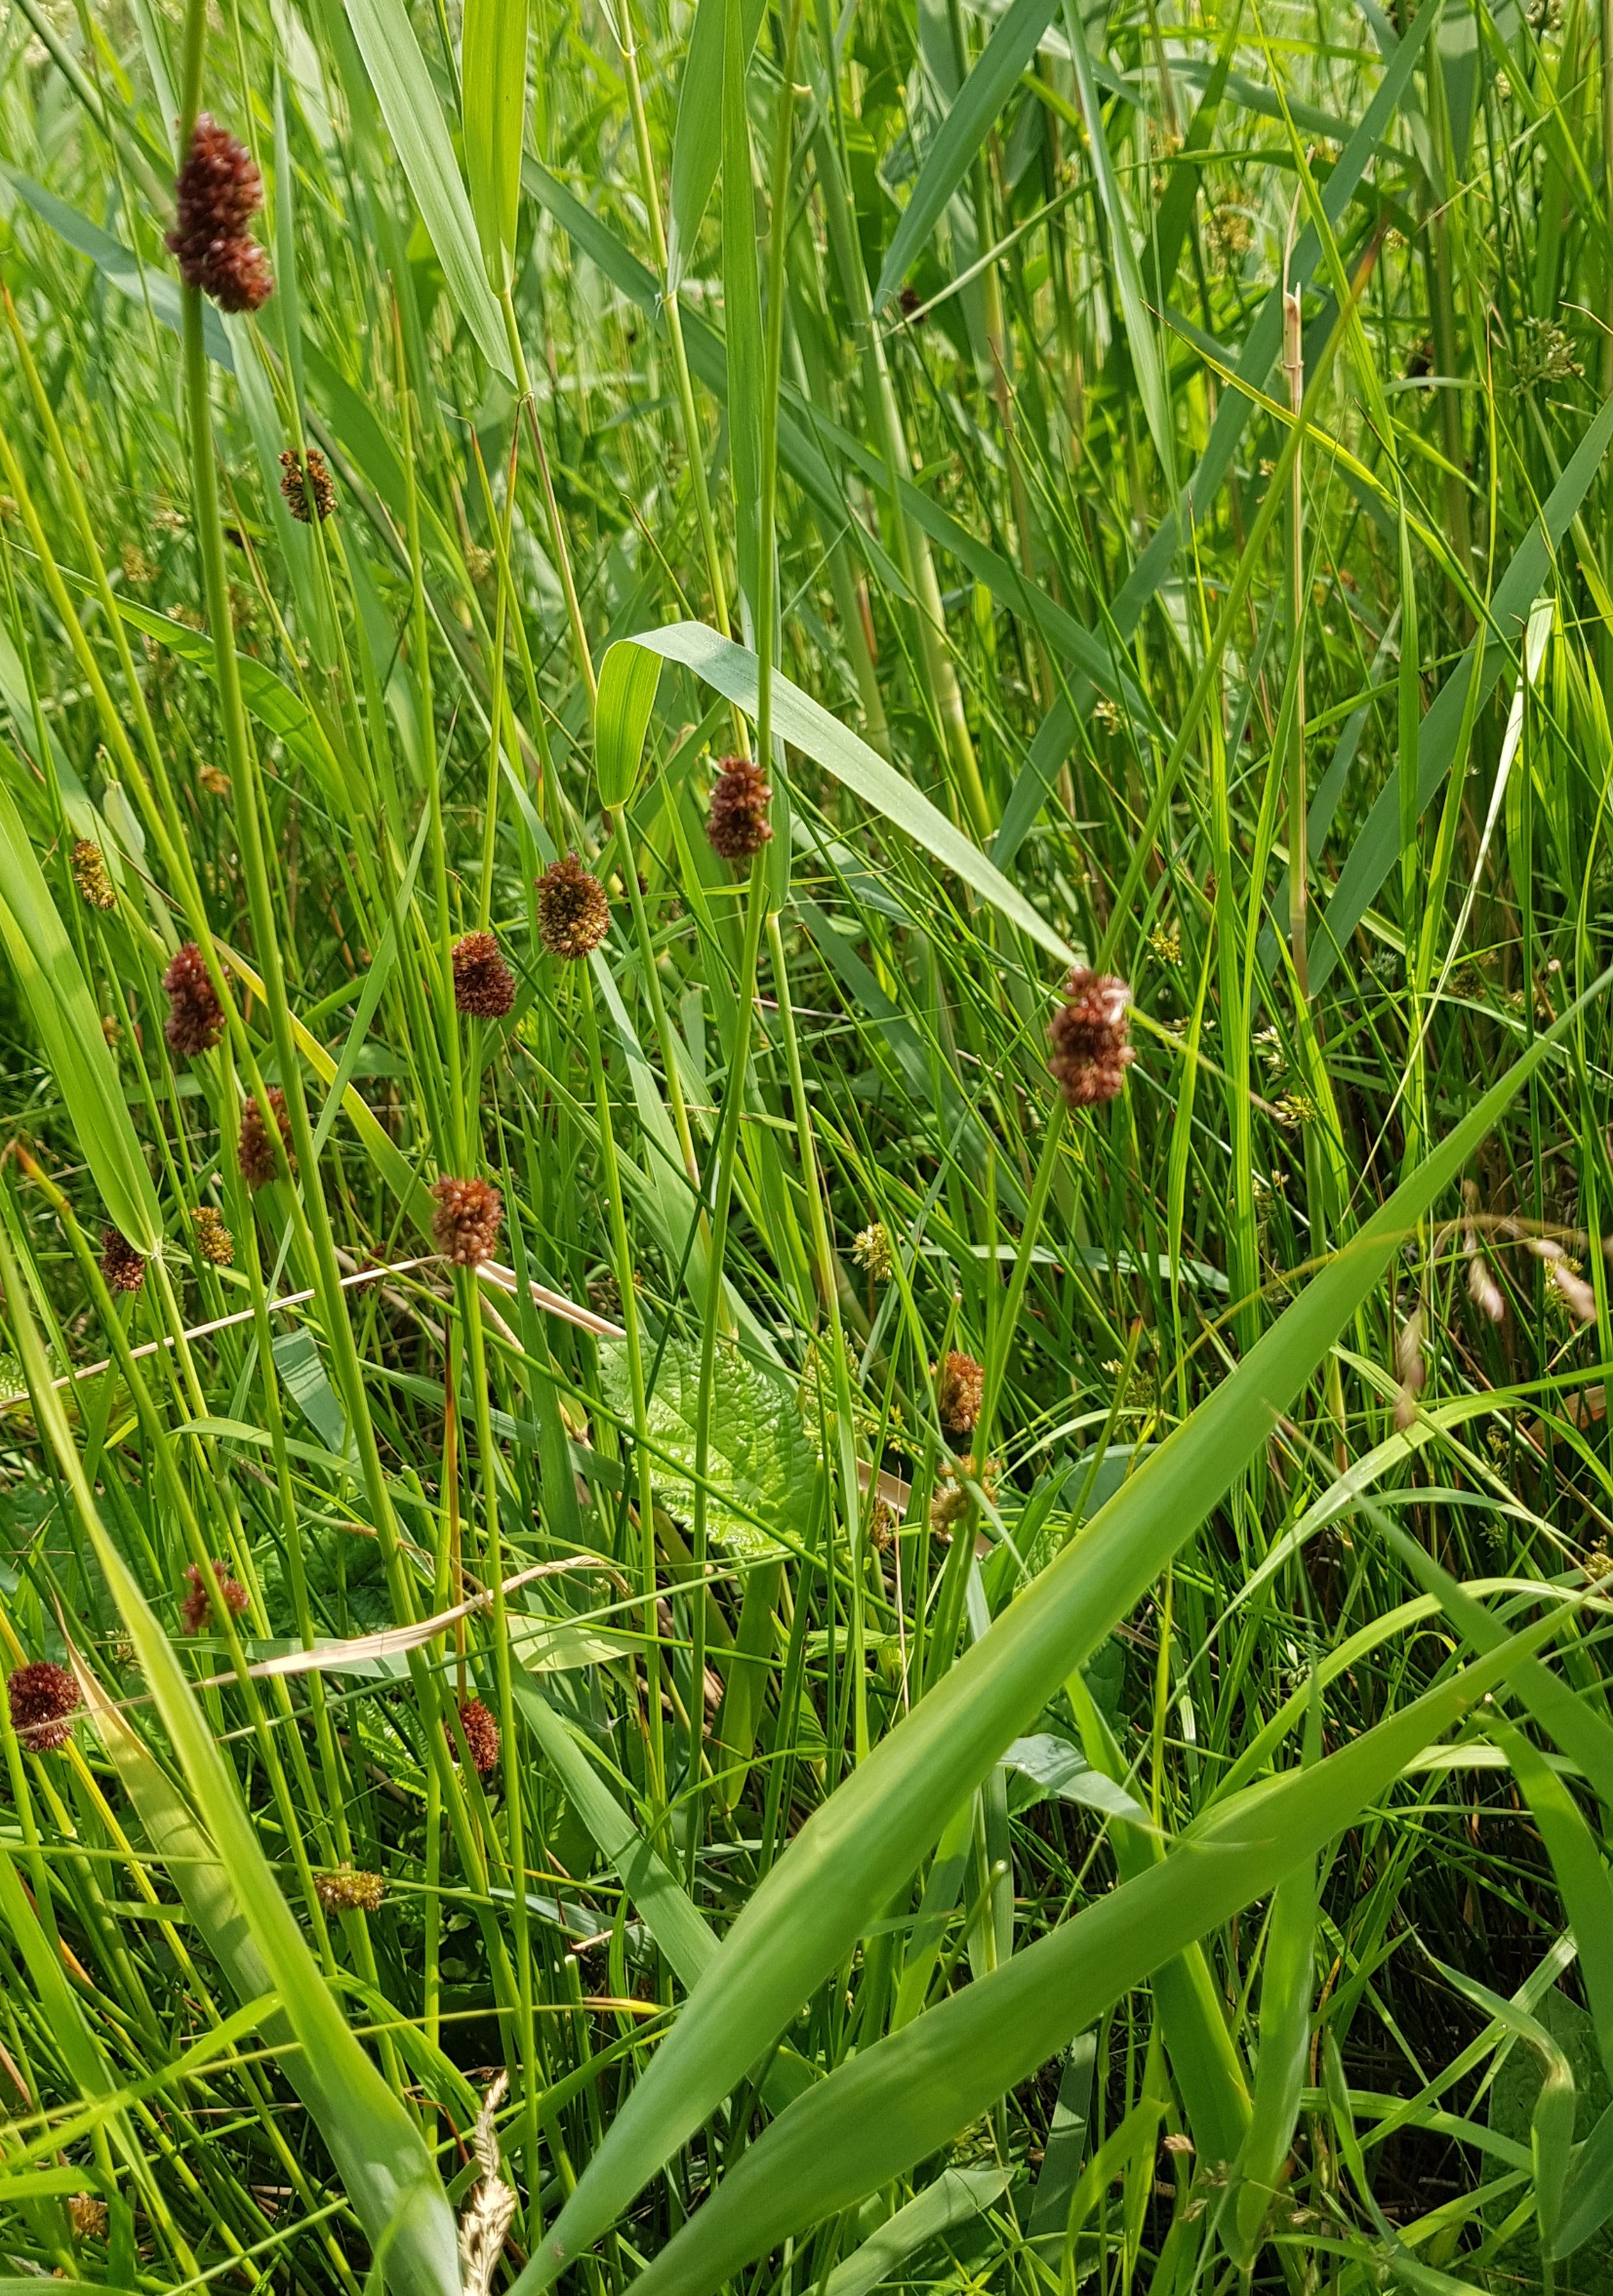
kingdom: Plantae
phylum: Tracheophyta
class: Liliopsida
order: Poales
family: Juncaceae
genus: Juncus
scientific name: Juncus conglomeratus
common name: Knop-siv
